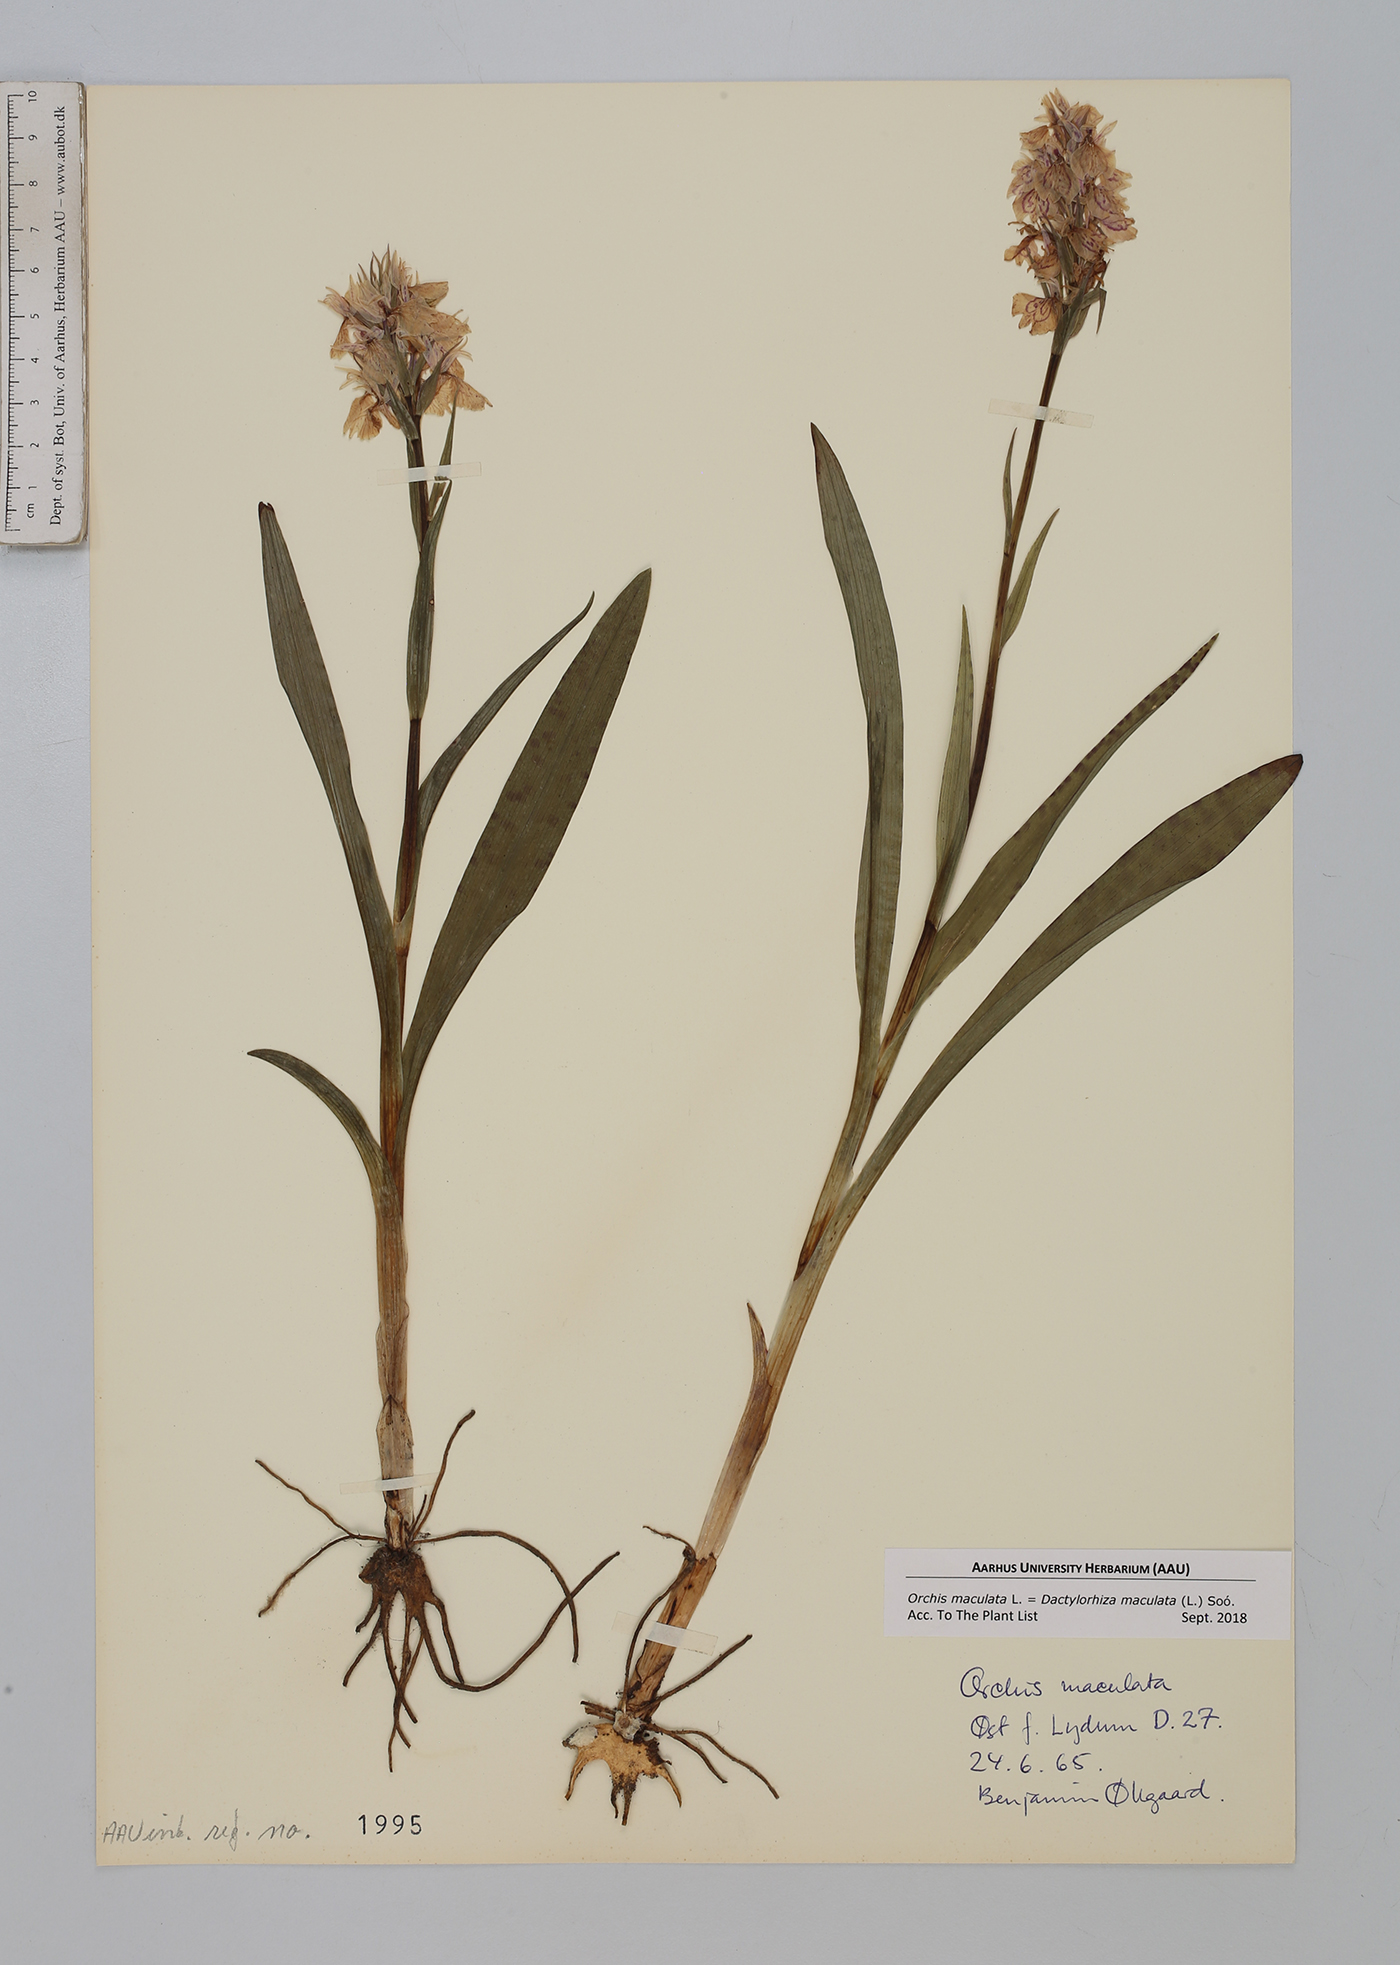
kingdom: Plantae
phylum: Tracheophyta
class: Liliopsida
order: Asparagales
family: Orchidaceae
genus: Dactylorhiza
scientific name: Dactylorhiza maculata
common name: Heath spotted-orchid
